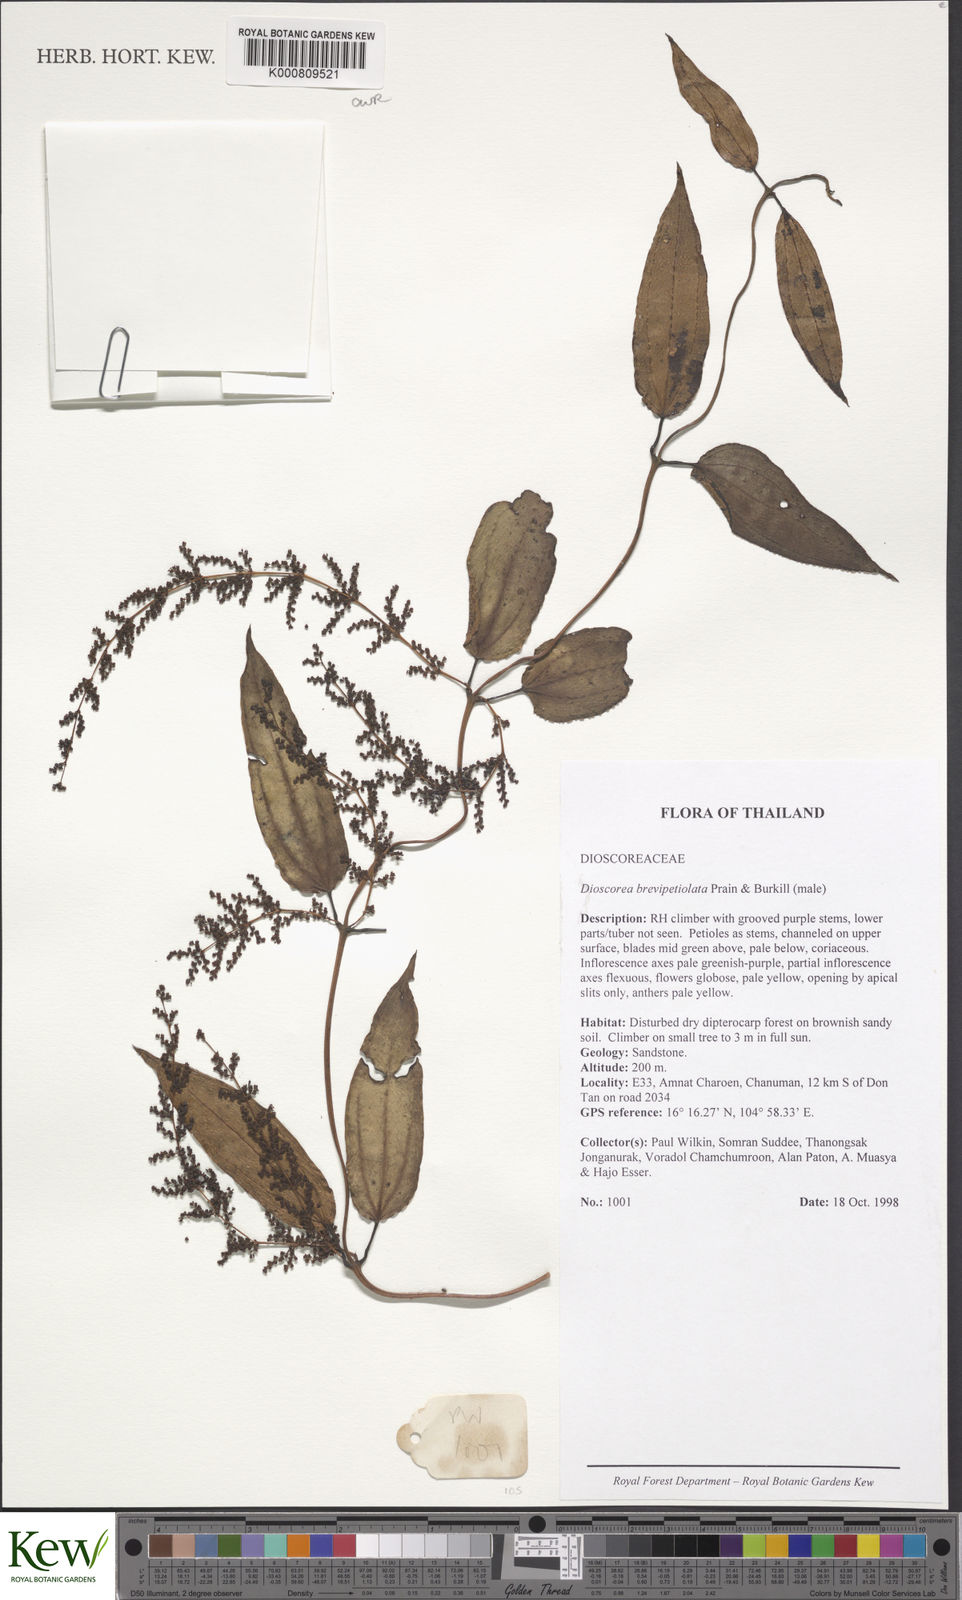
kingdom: Plantae
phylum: Tracheophyta
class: Liliopsida
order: Dioscoreales
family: Dioscoreaceae
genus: Dioscorea
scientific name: Dioscorea brevipetiolata
